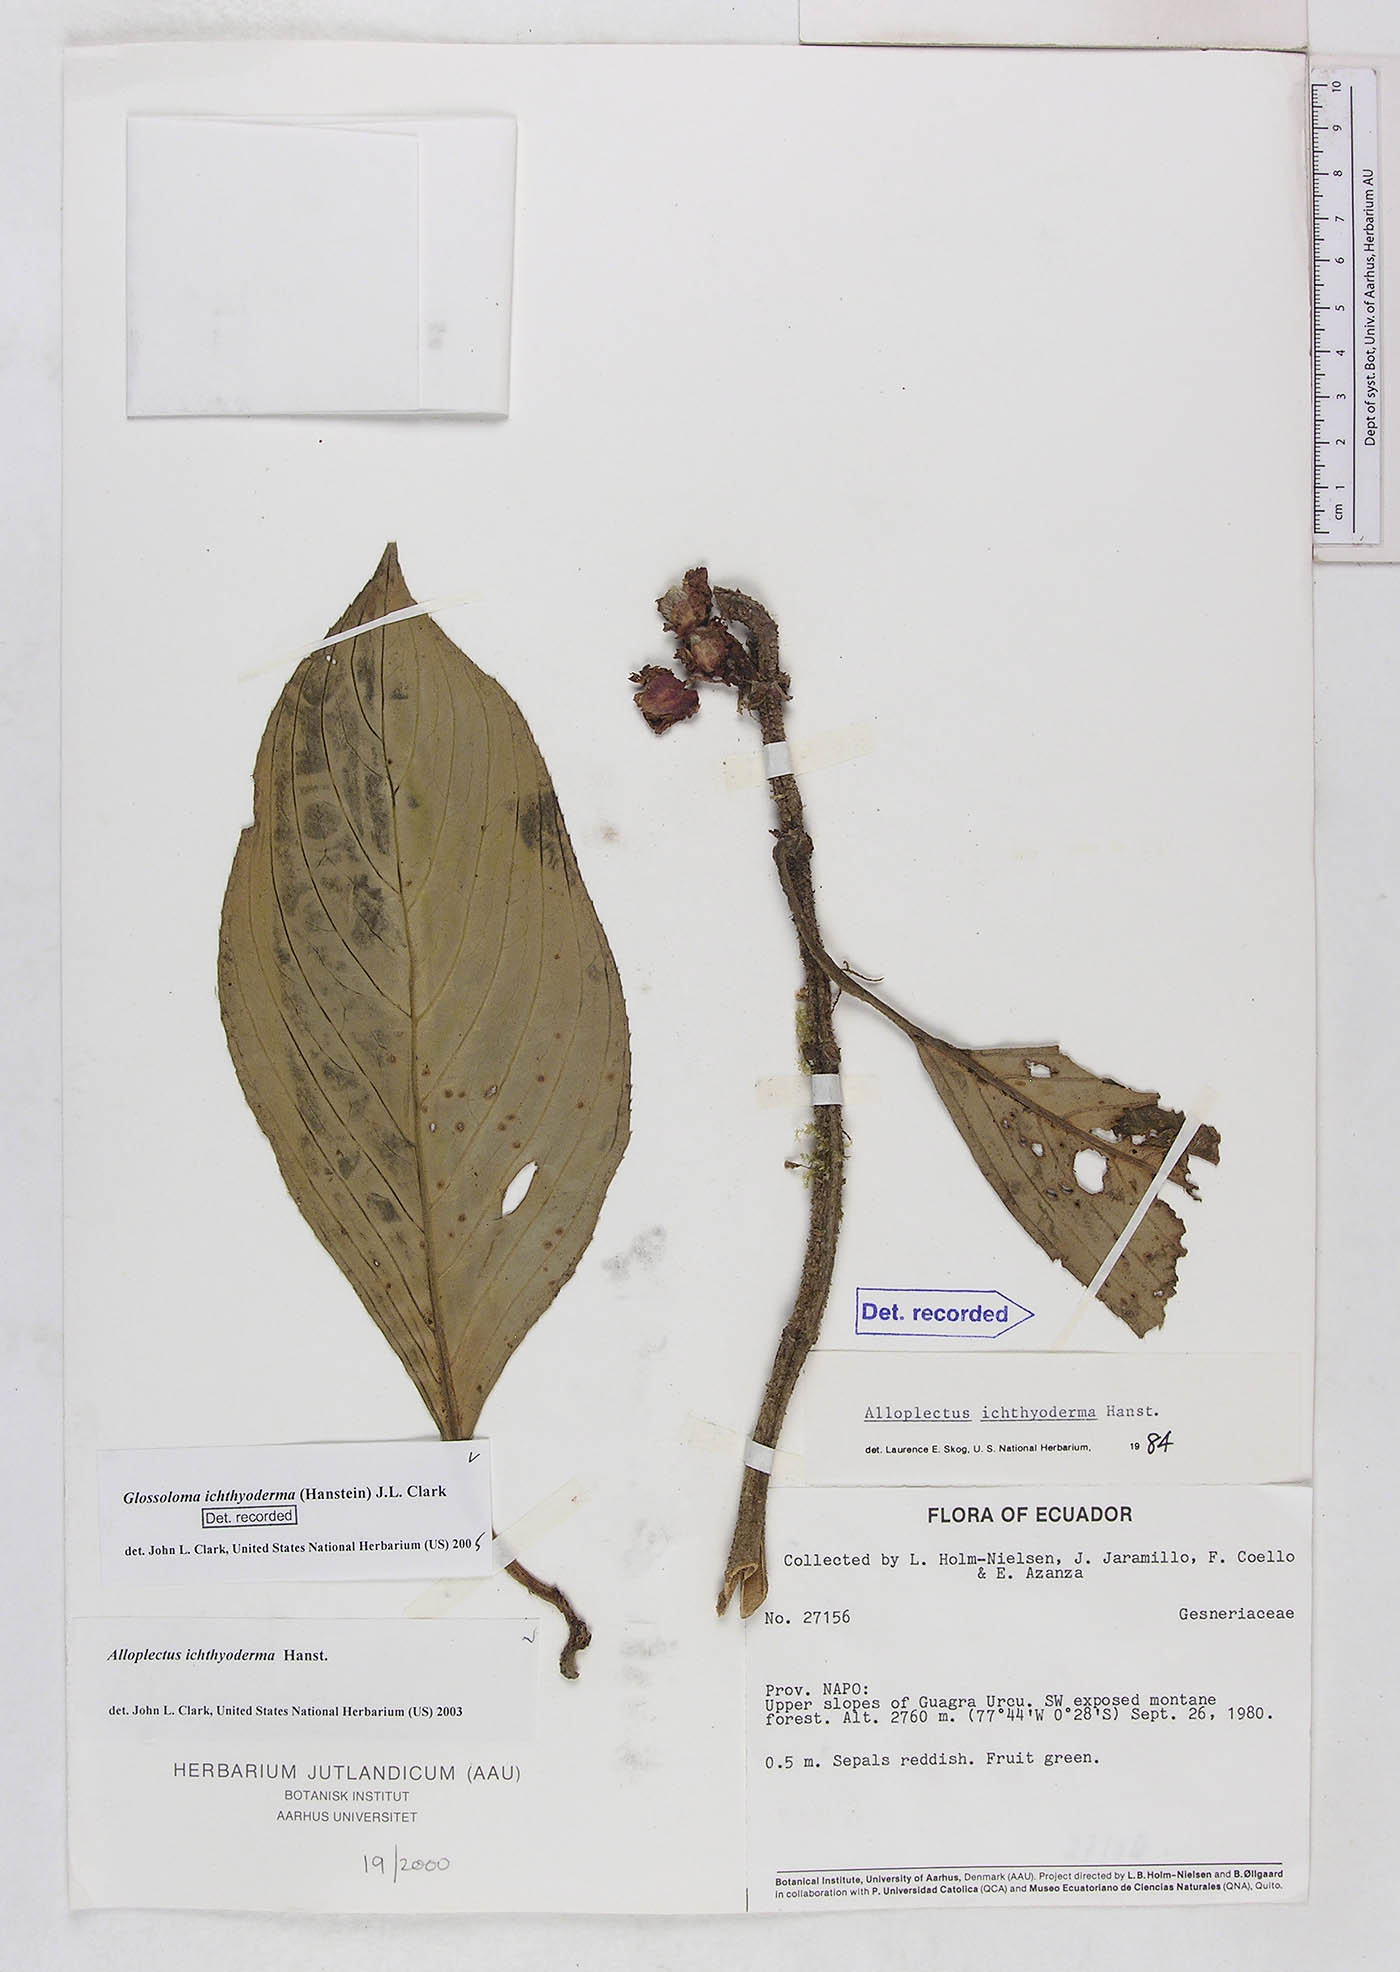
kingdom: Plantae
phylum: Tracheophyta
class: Magnoliopsida
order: Lamiales
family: Gesneriaceae
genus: Glossoloma
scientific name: Glossoloma ichthyoderma
